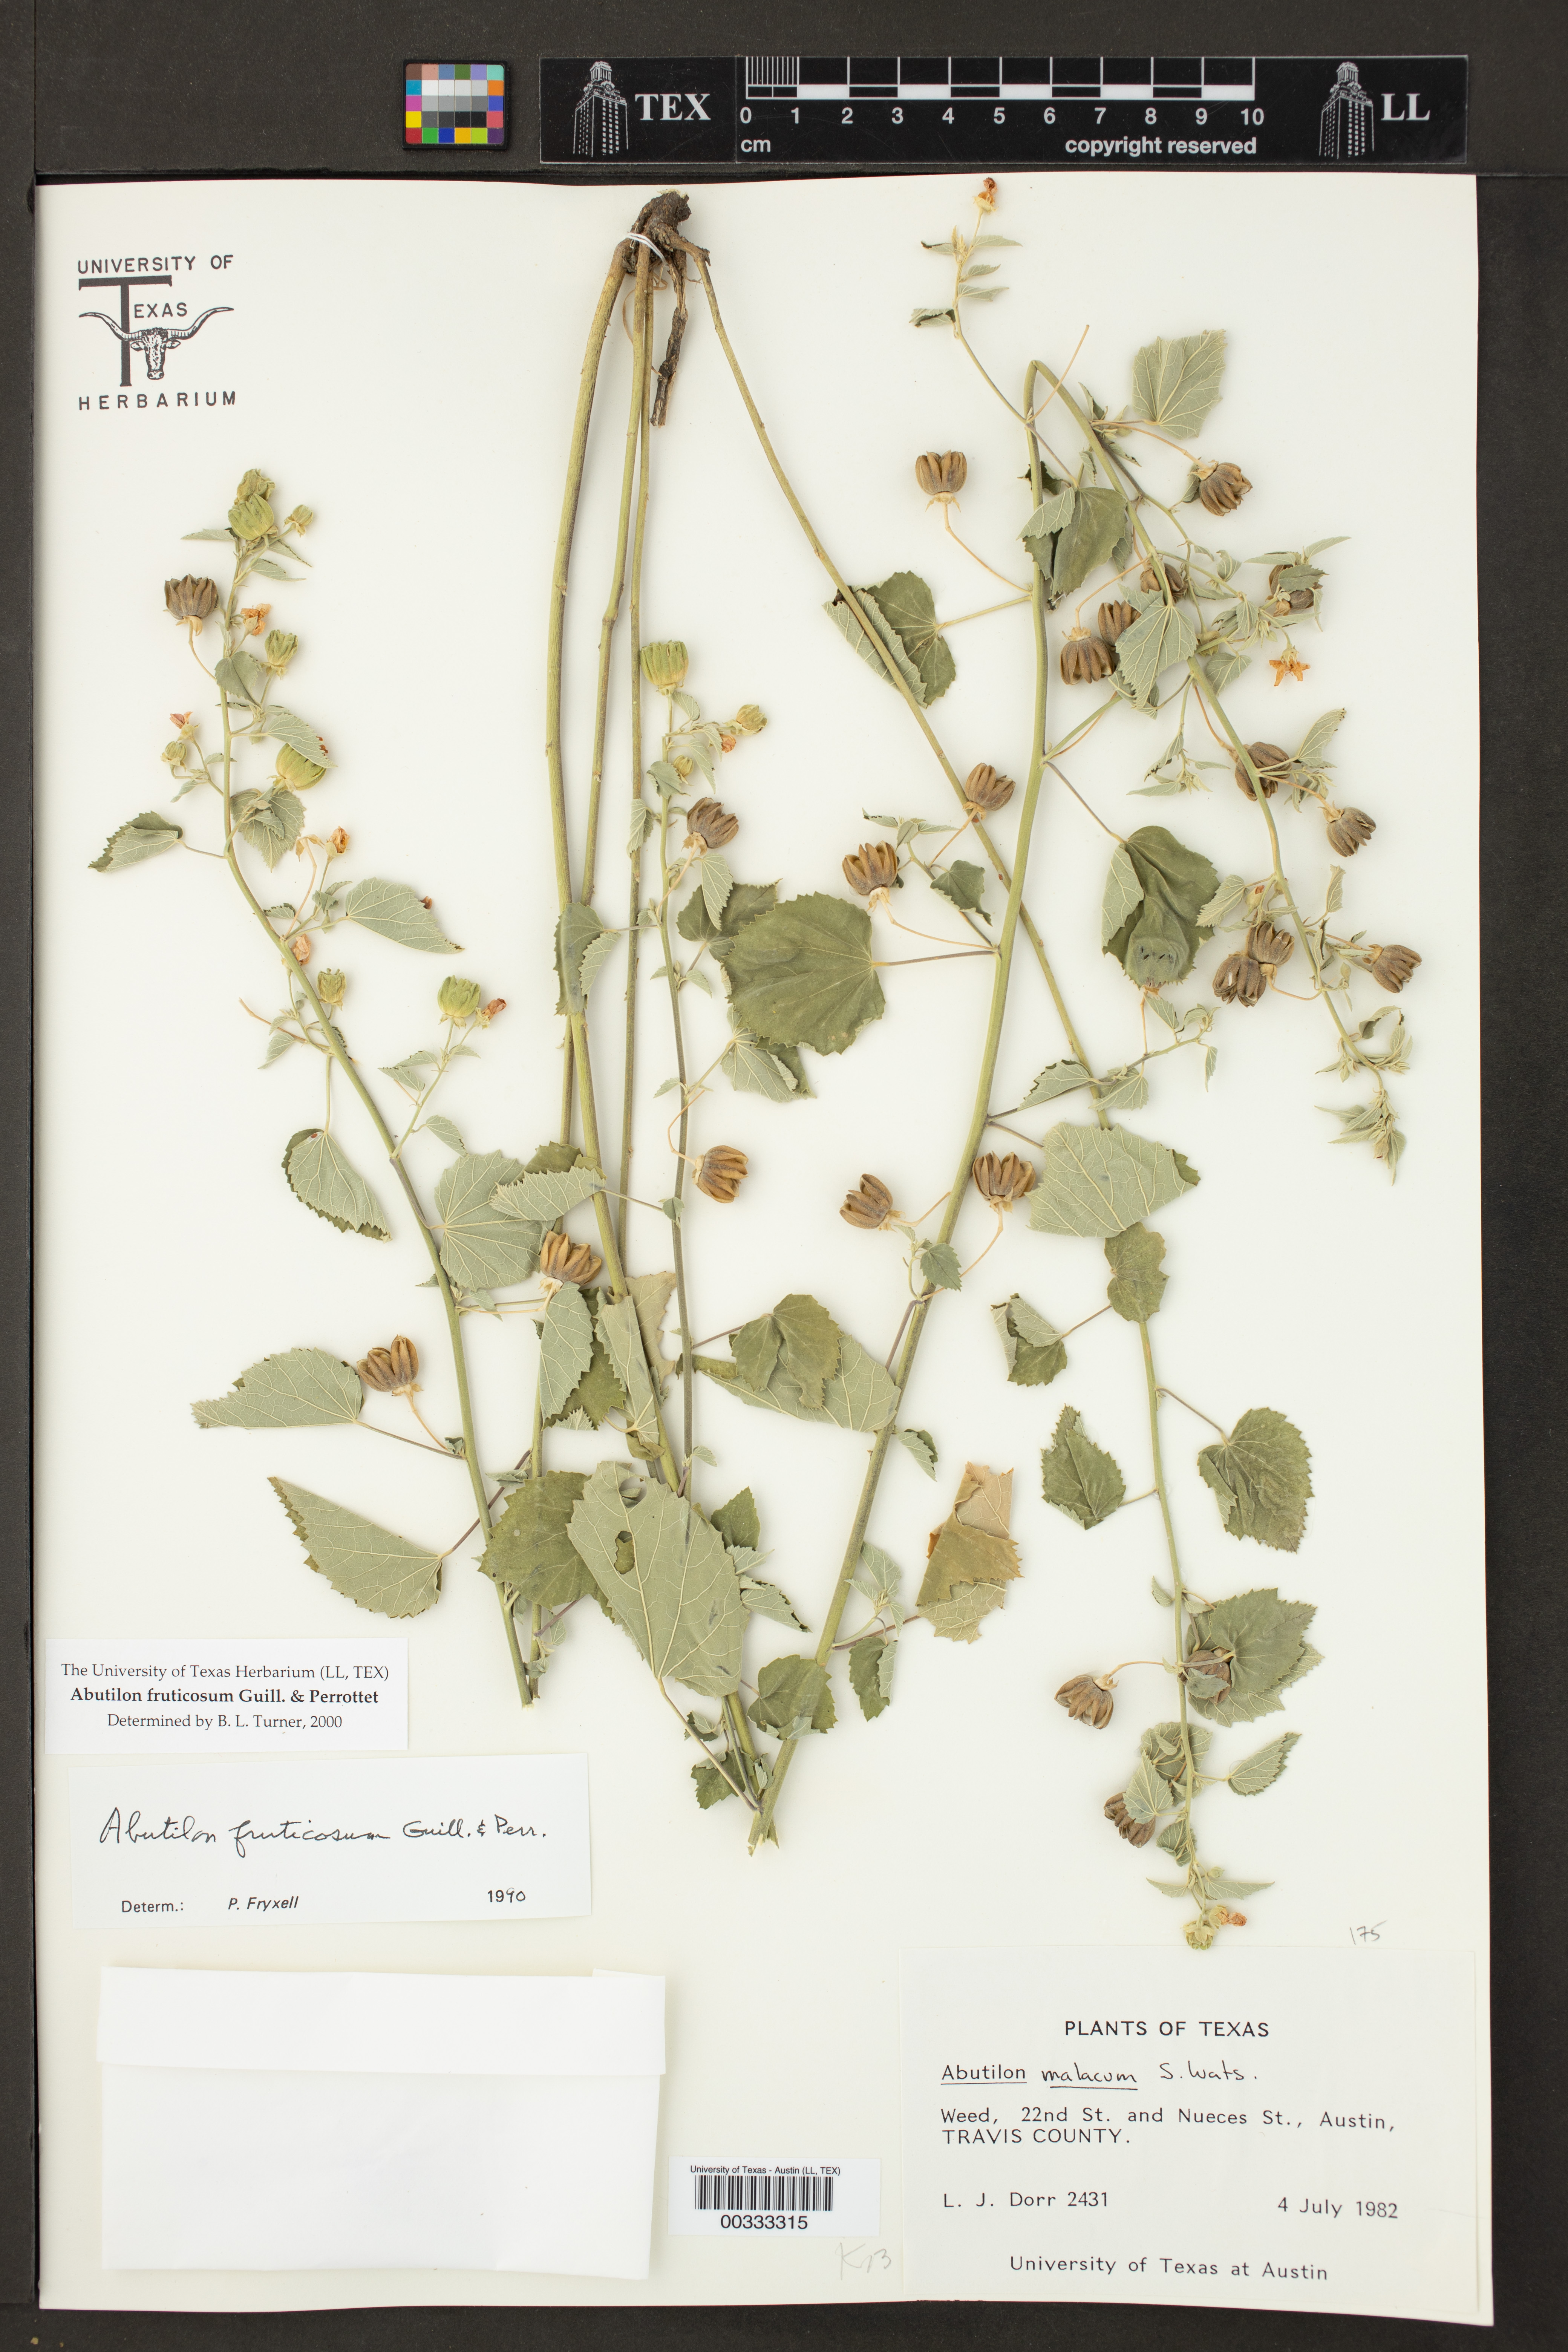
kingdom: Plantae
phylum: Tracheophyta
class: Magnoliopsida
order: Malvales
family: Malvaceae
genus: Abutilon
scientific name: Abutilon fruticosum
